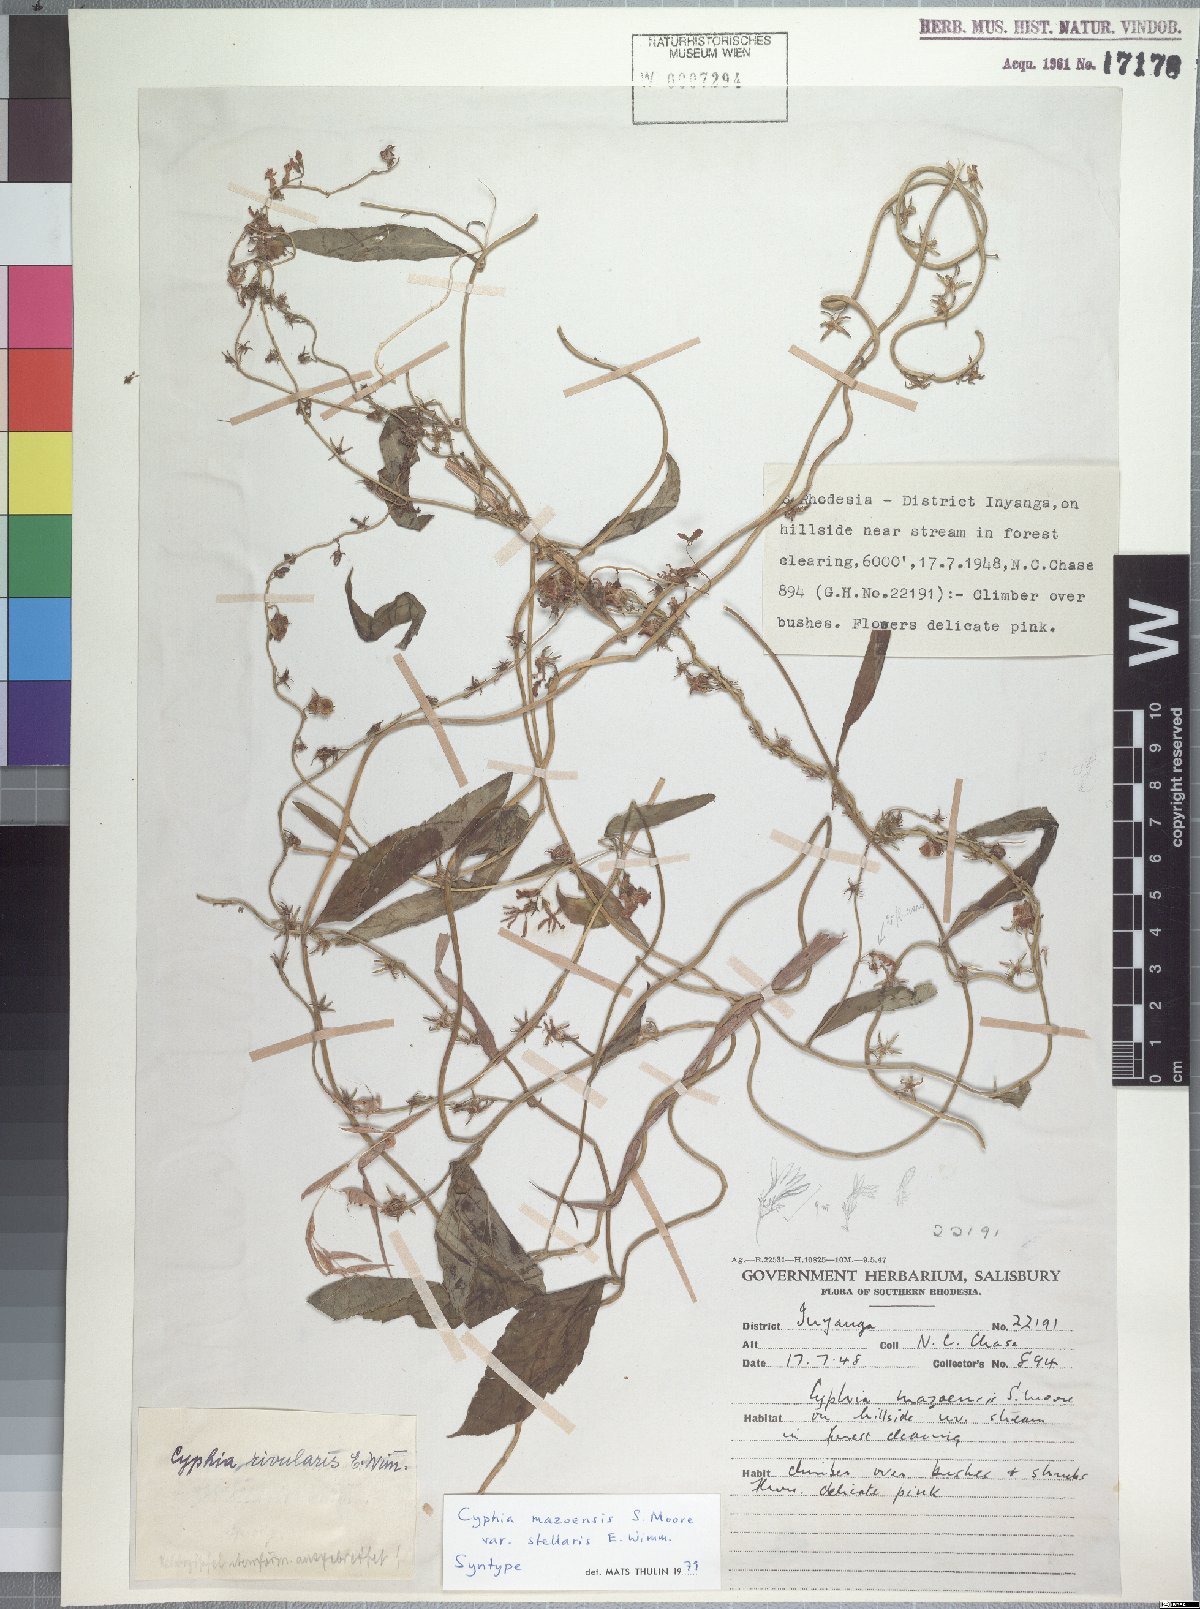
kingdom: Plantae
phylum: Tracheophyta
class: Magnoliopsida
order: Asterales
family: Campanulaceae
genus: Cyphia
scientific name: Cyphia mazoensis
